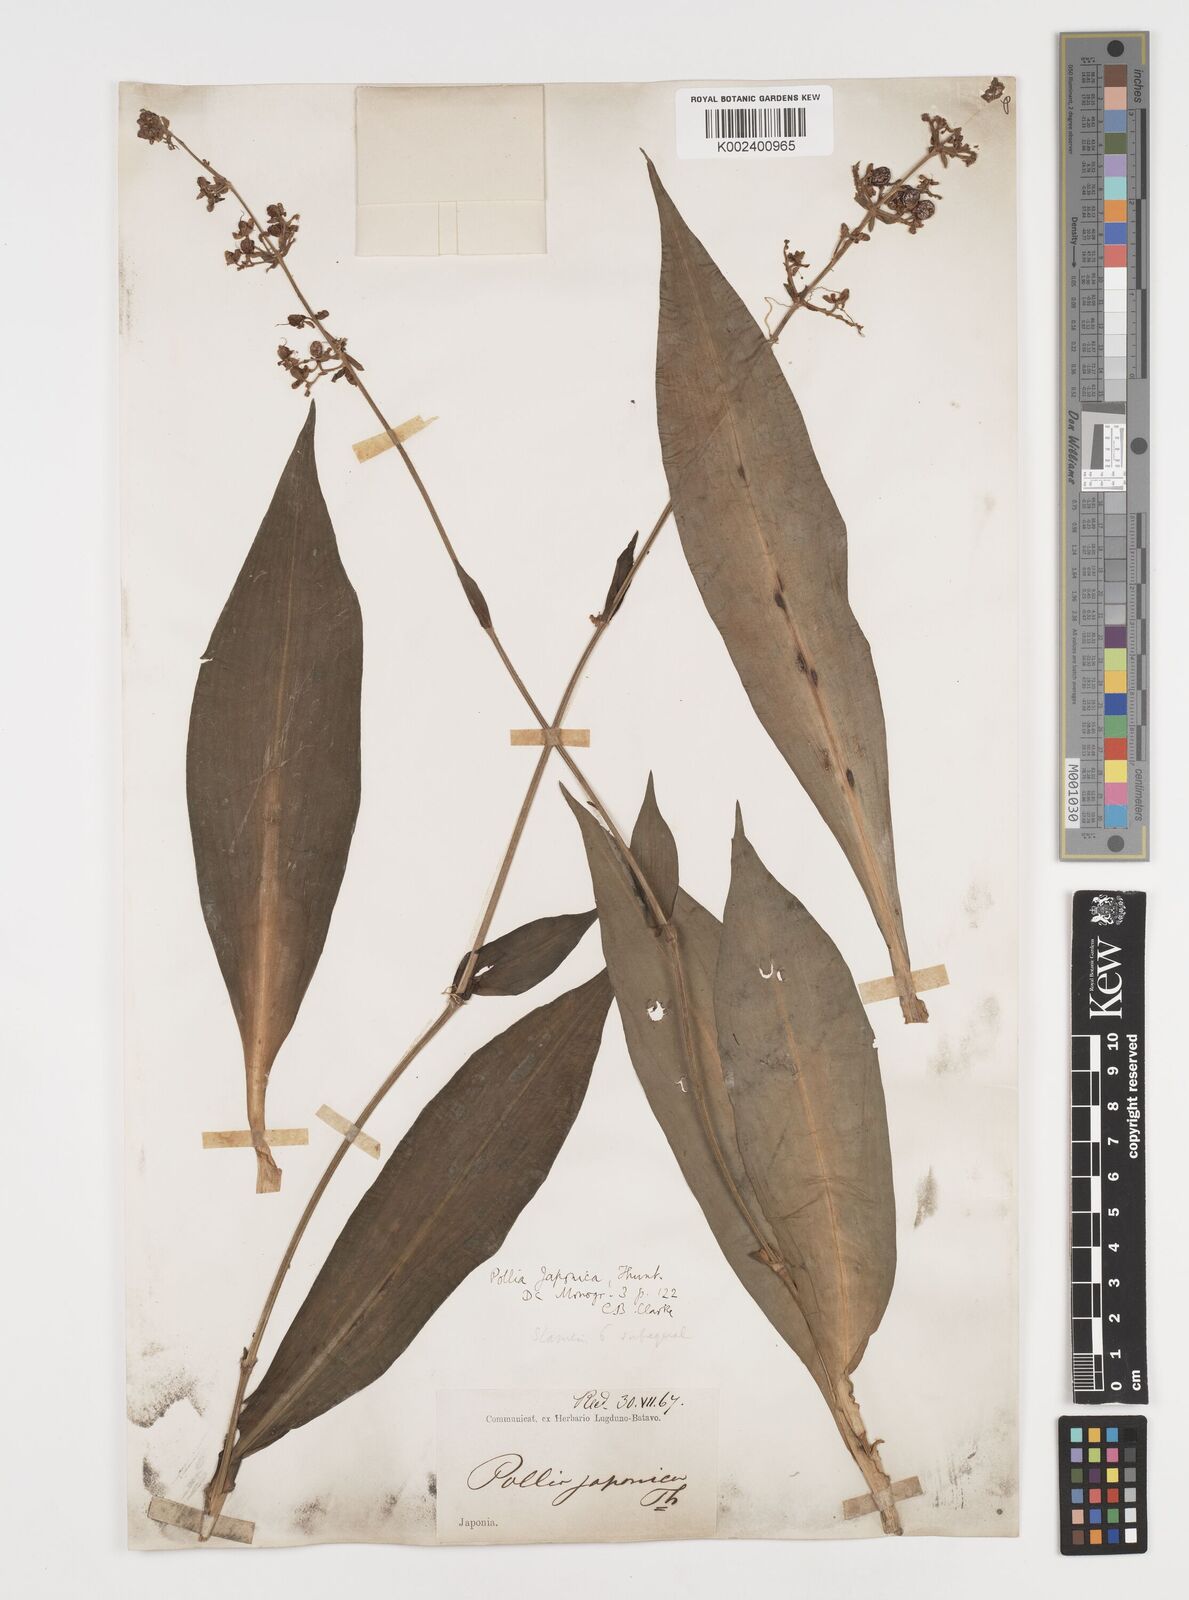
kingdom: Plantae
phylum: Tracheophyta
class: Liliopsida
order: Commelinales
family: Commelinaceae
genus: Pollia
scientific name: Pollia japonica
